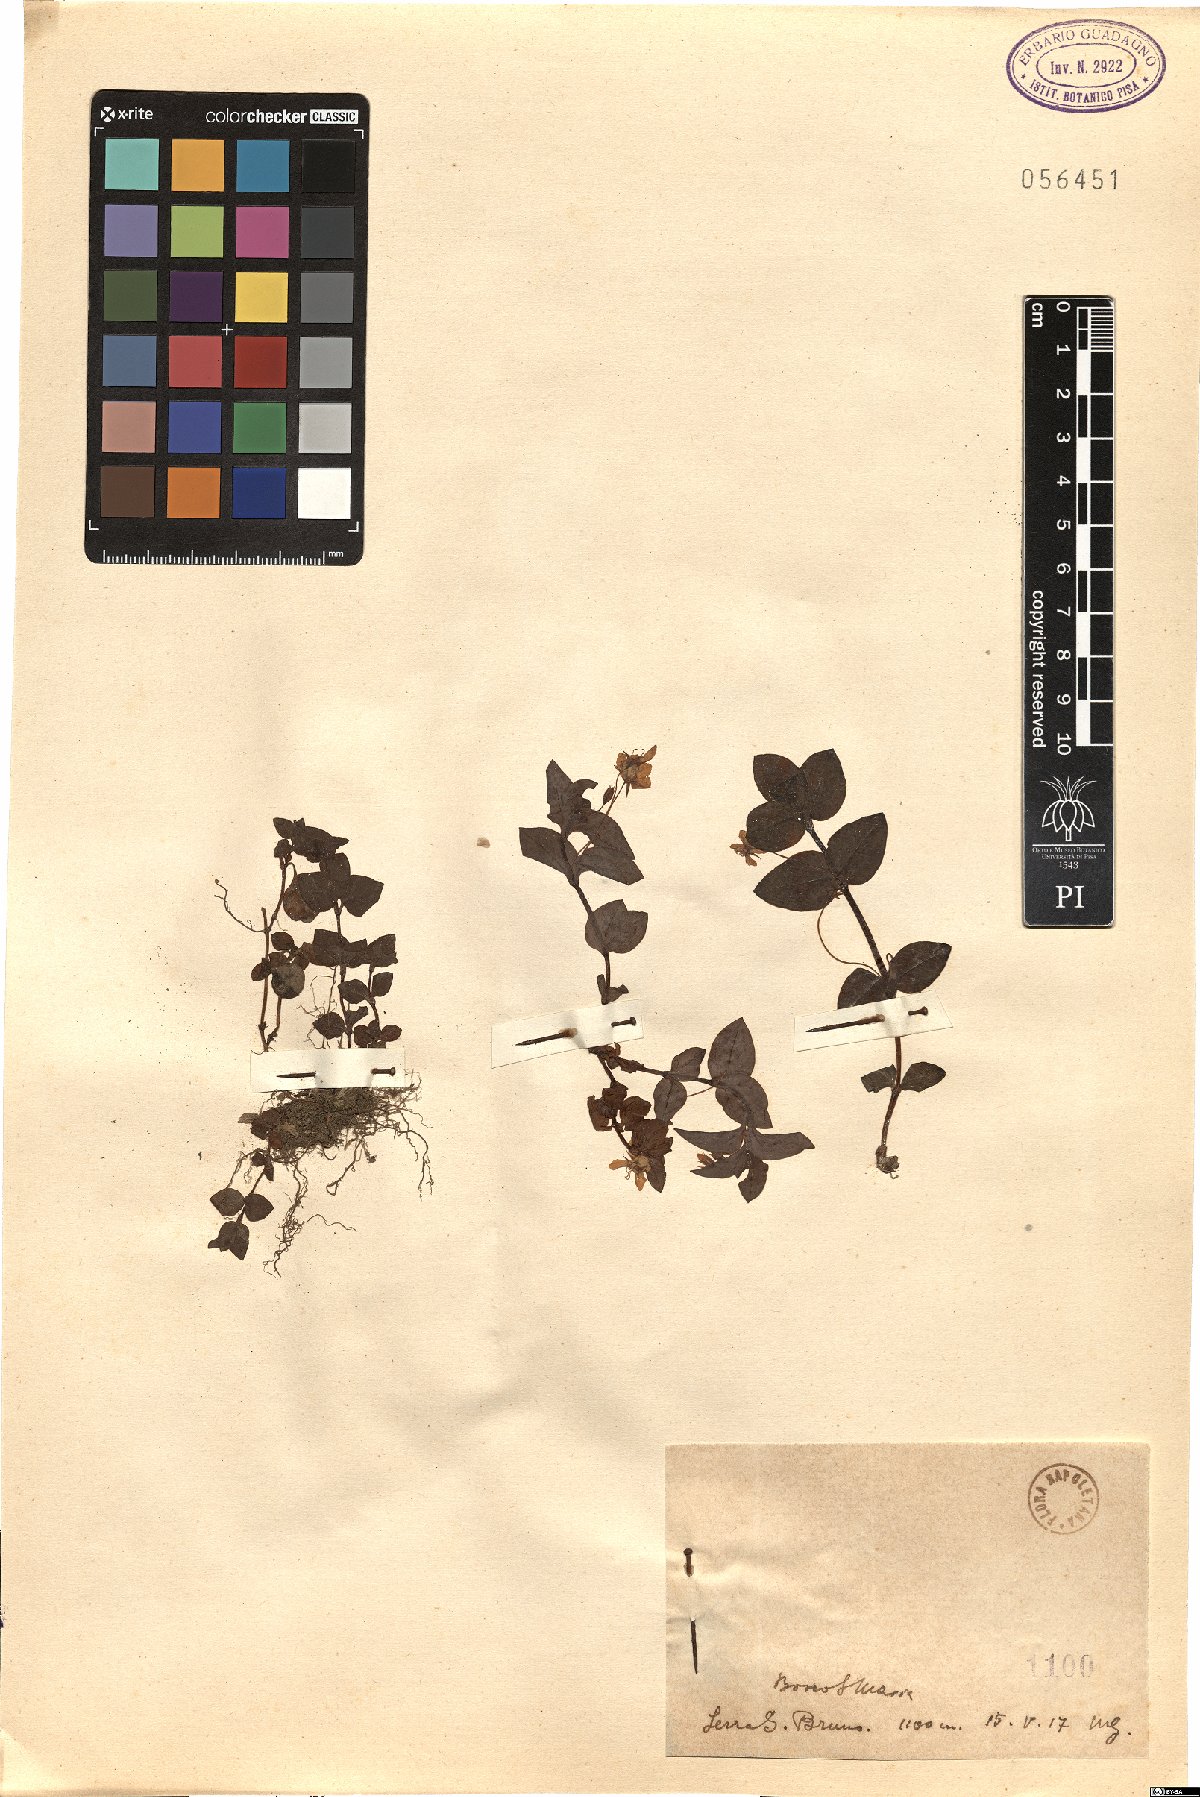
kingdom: Plantae
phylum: Tracheophyta
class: Magnoliopsida
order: Ericales
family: Primulaceae
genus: Lysimachia
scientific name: Lysimachia
